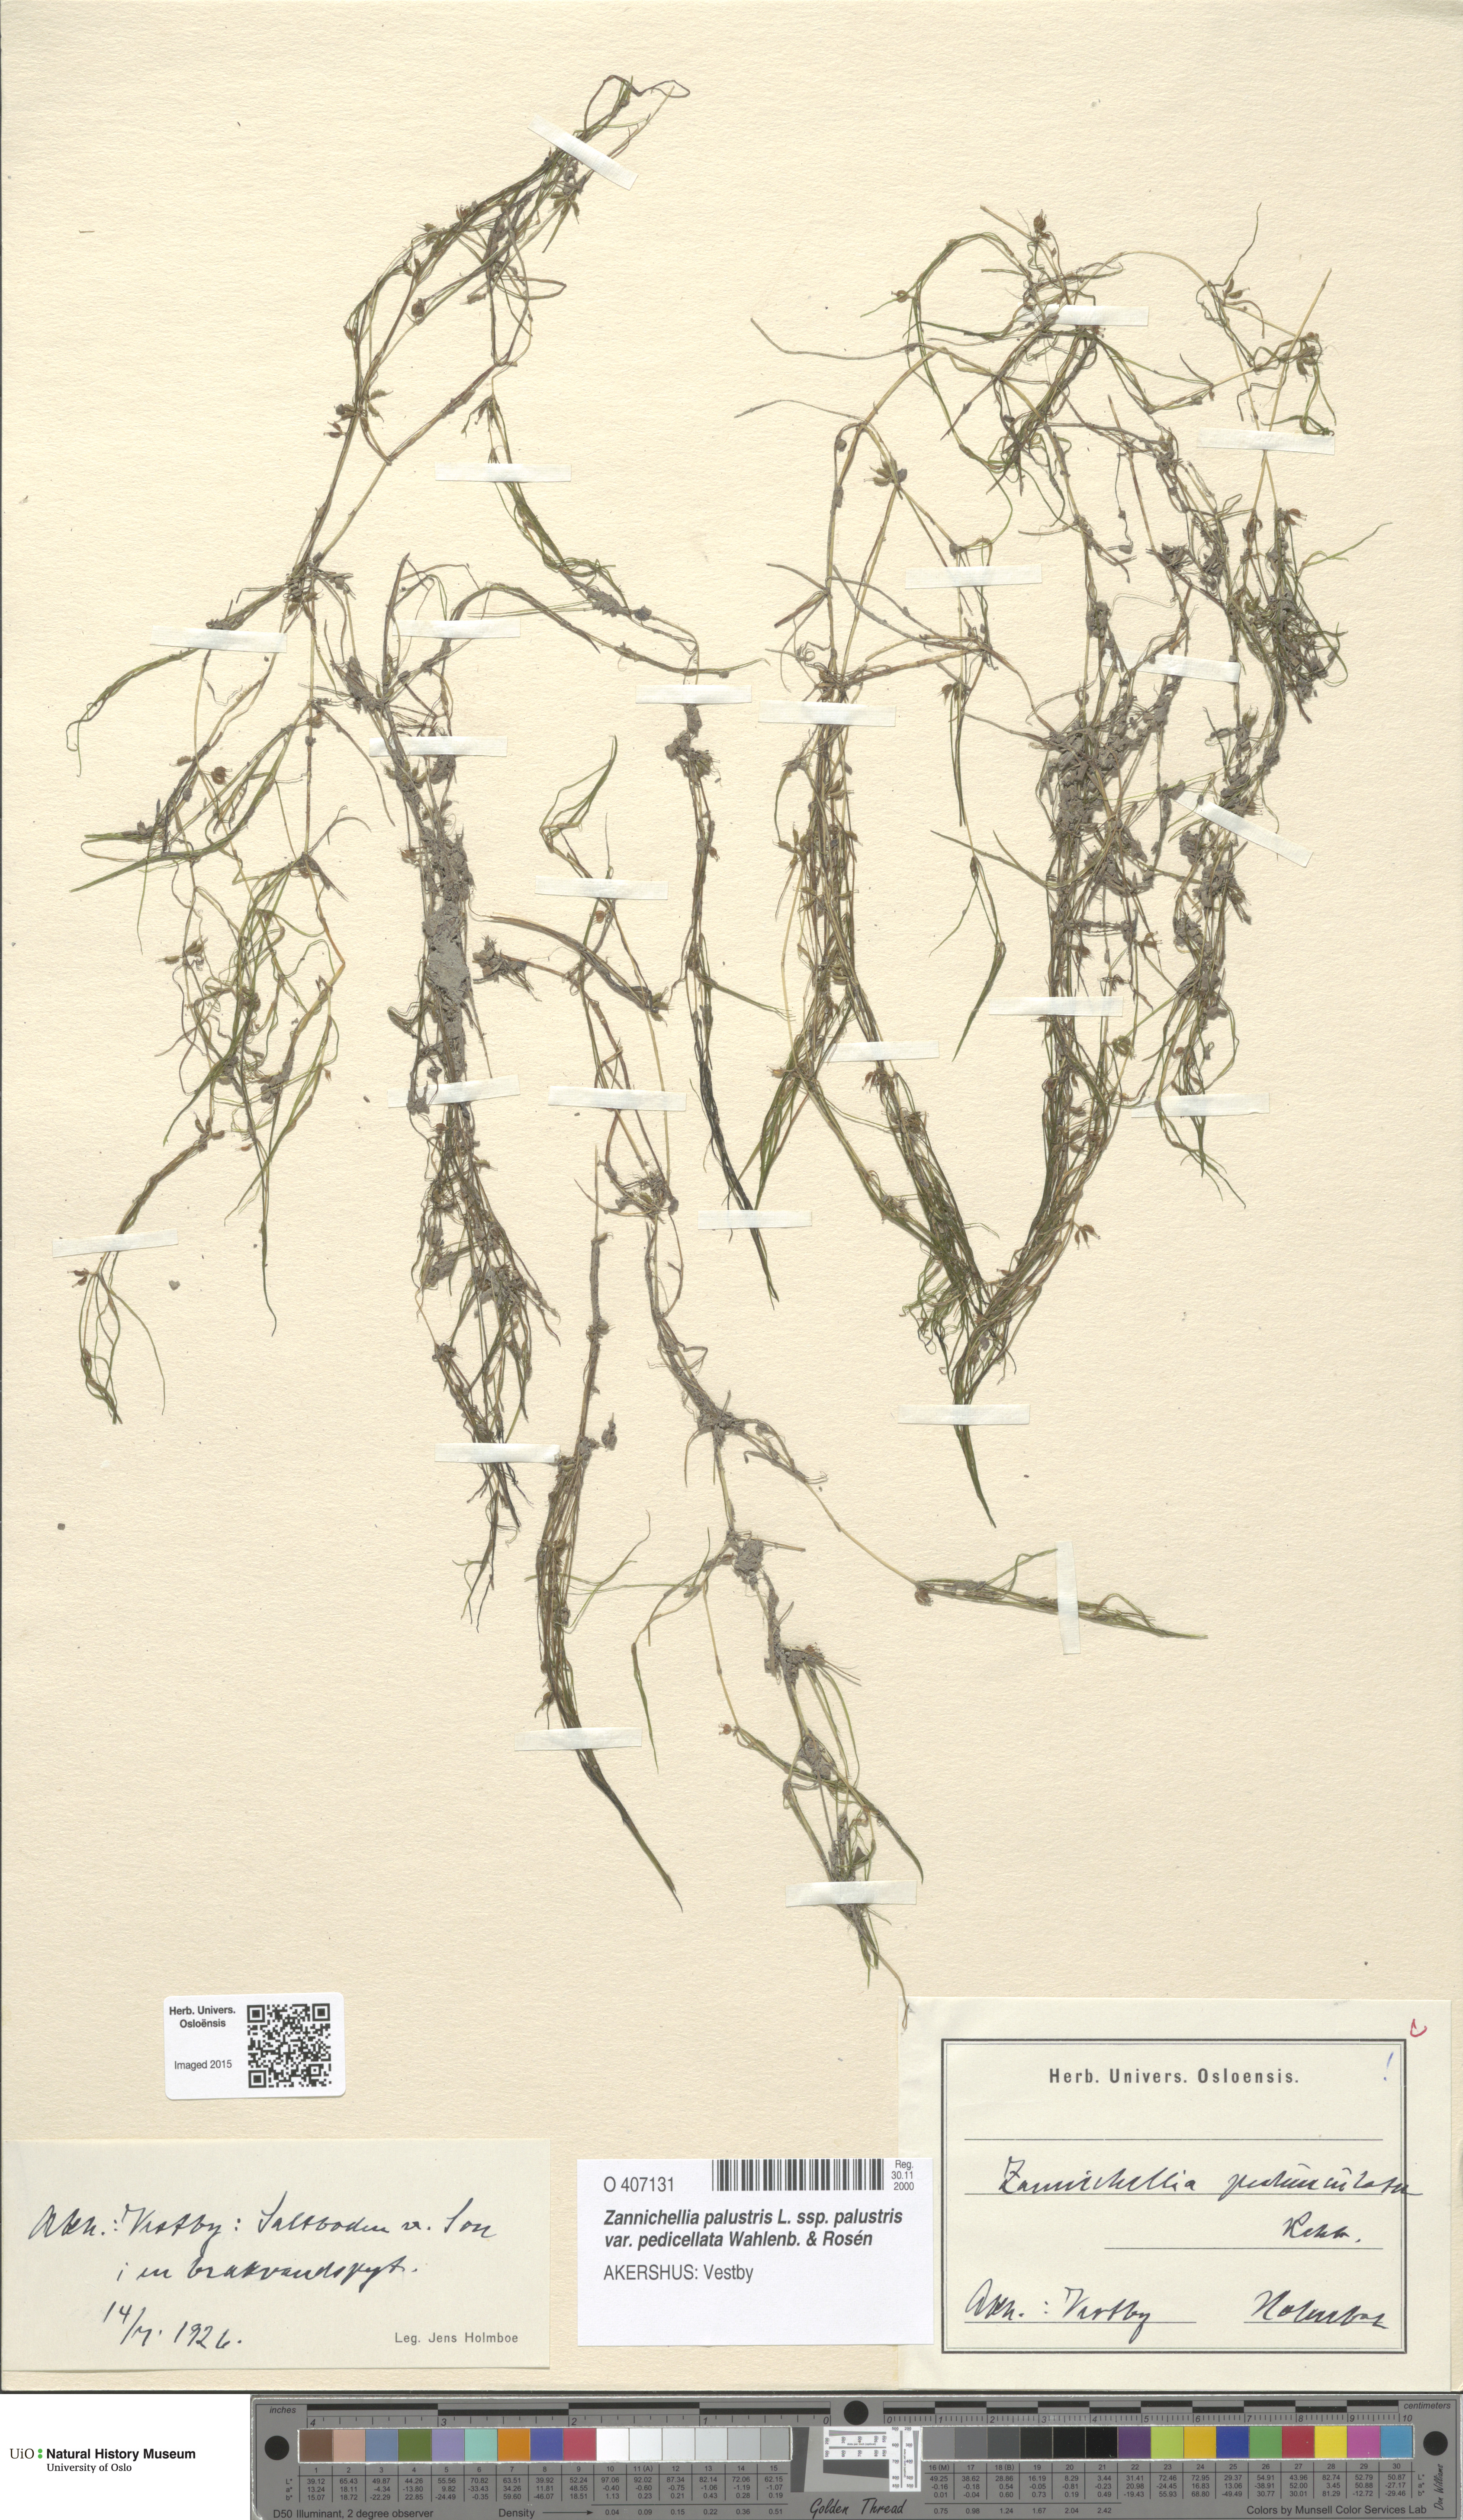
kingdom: Plantae
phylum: Tracheophyta
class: Liliopsida
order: Alismatales
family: Potamogetonaceae
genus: Zannichellia
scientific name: Zannichellia palustris
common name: Horned pondweed
